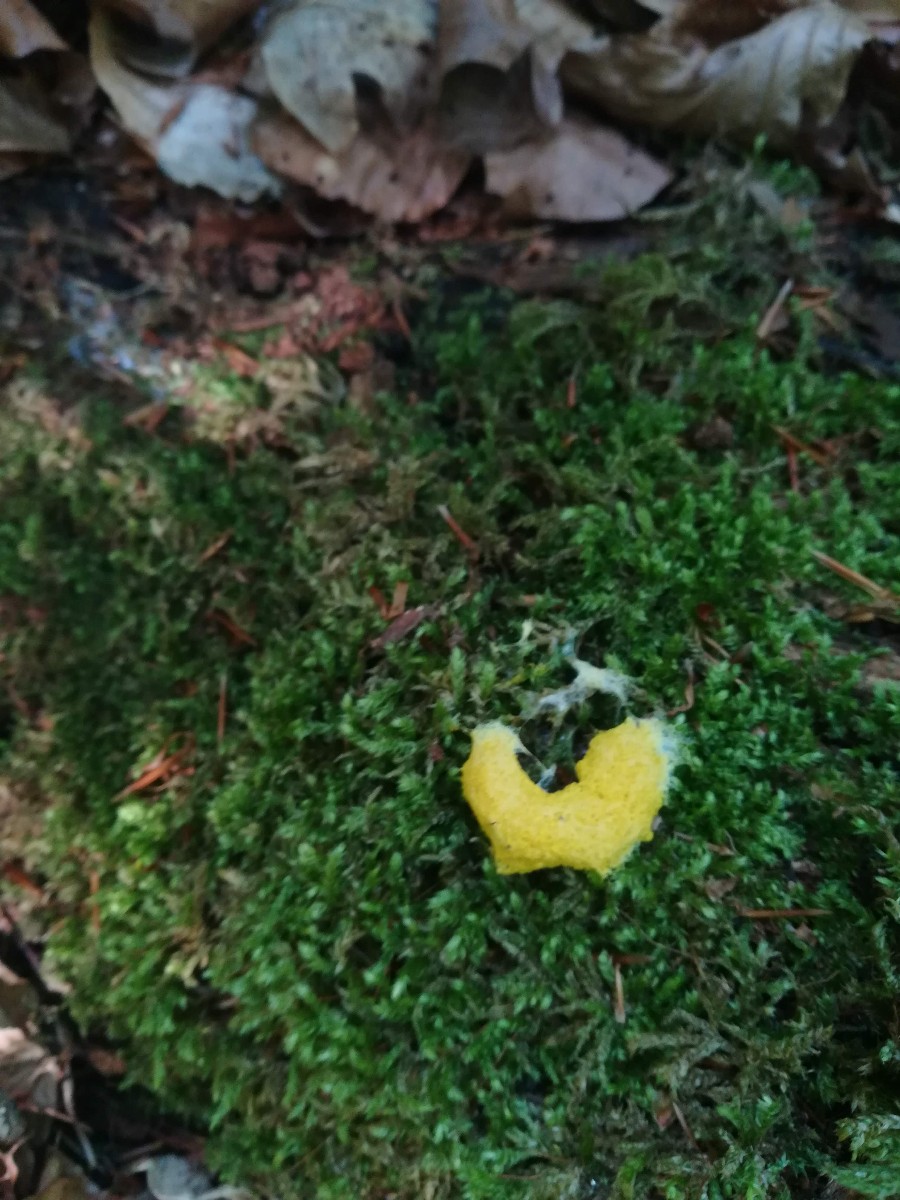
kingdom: Protozoa
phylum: Mycetozoa
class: Myxomycetes
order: Physarales
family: Physaraceae
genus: Fuligo
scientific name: Fuligo septica
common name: gul troldsmør
